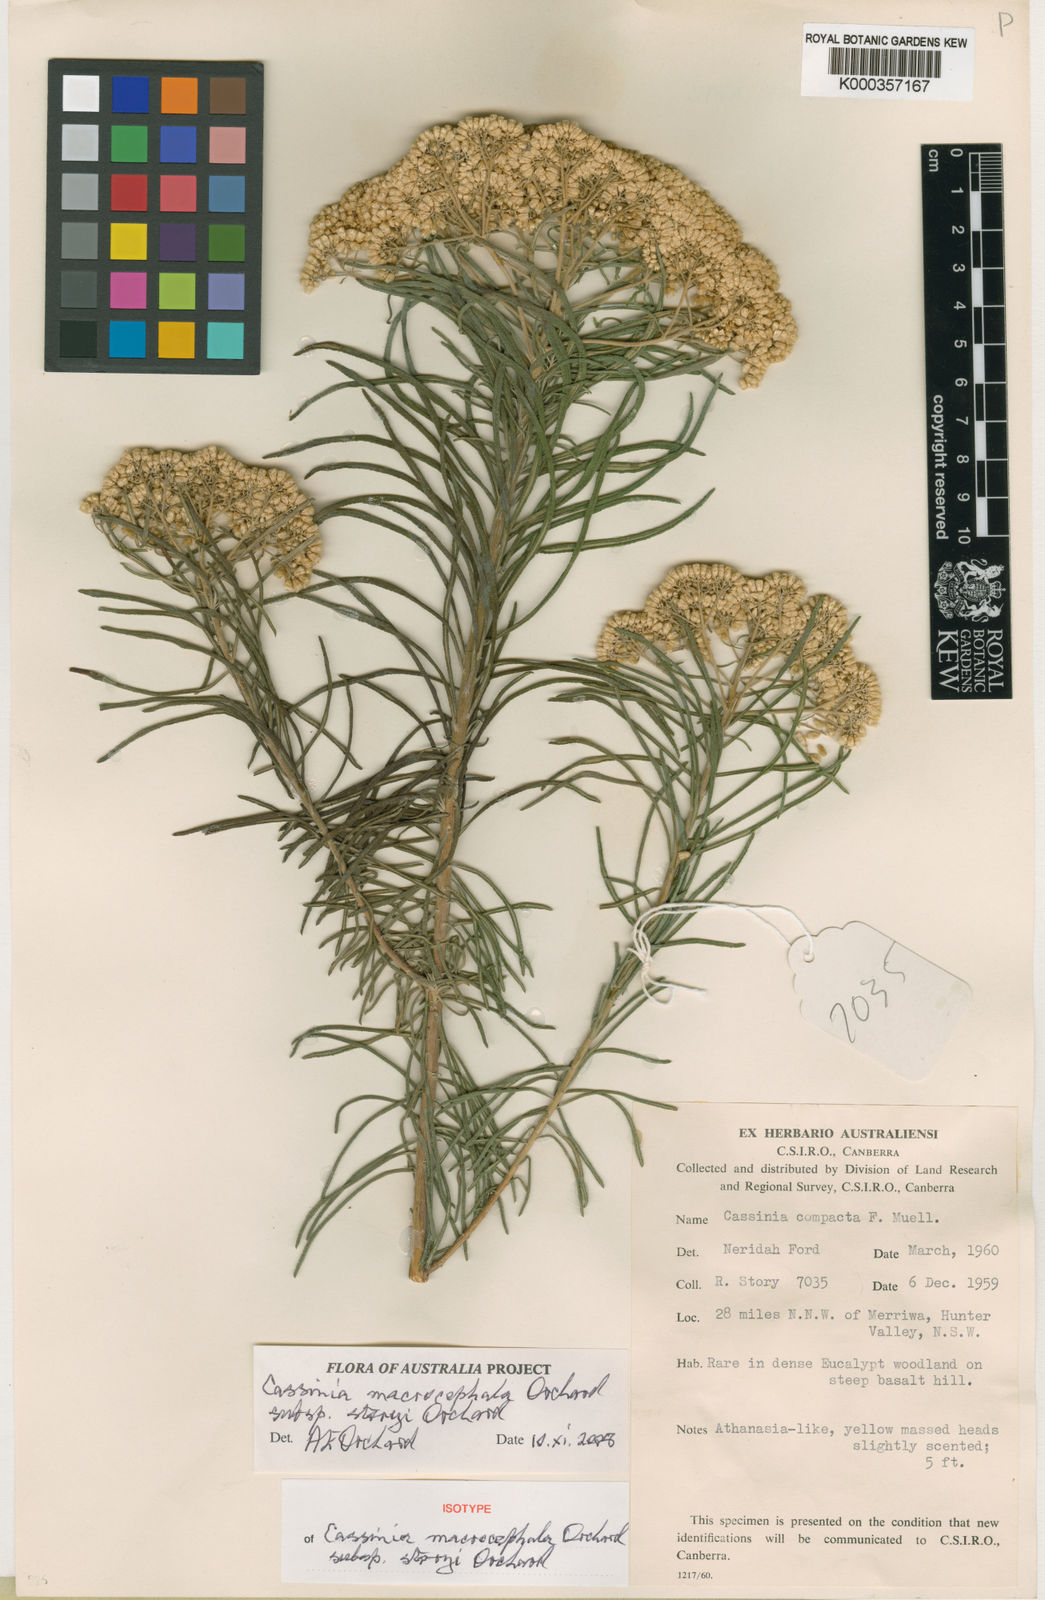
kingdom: Plantae
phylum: Tracheophyta
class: Magnoliopsida
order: Asterales
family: Asteraceae
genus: Cassinia
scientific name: Cassinia storyi
